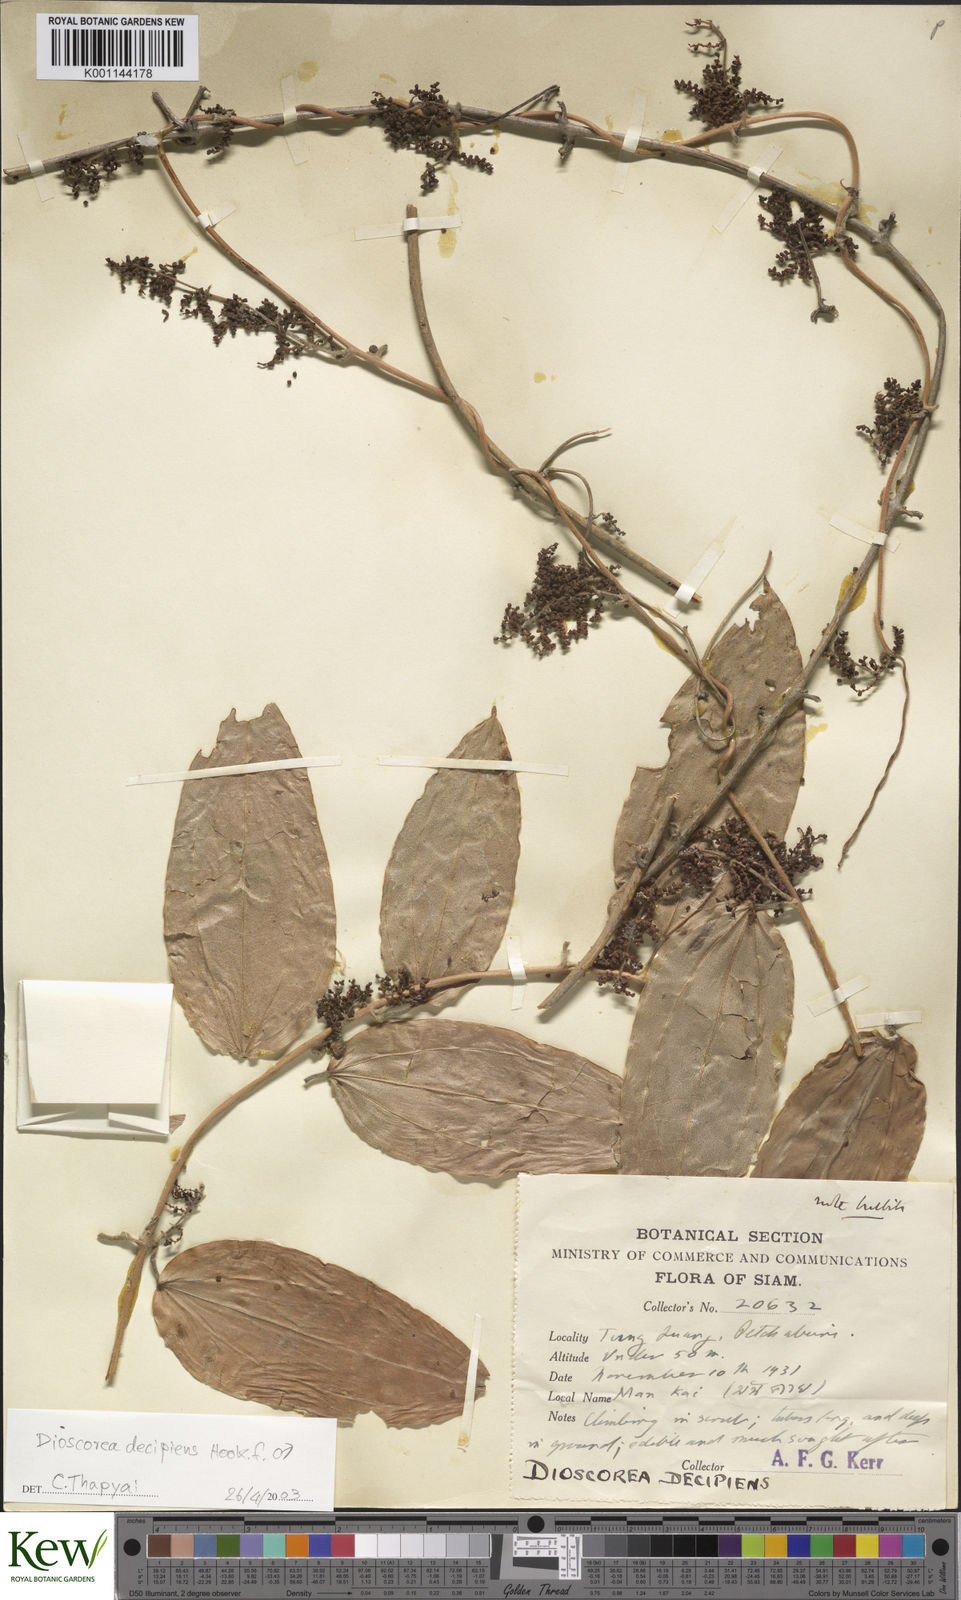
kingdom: Plantae
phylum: Tracheophyta
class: Liliopsida
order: Dioscoreales
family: Dioscoreaceae
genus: Dioscorea
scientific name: Dioscorea decipiens
